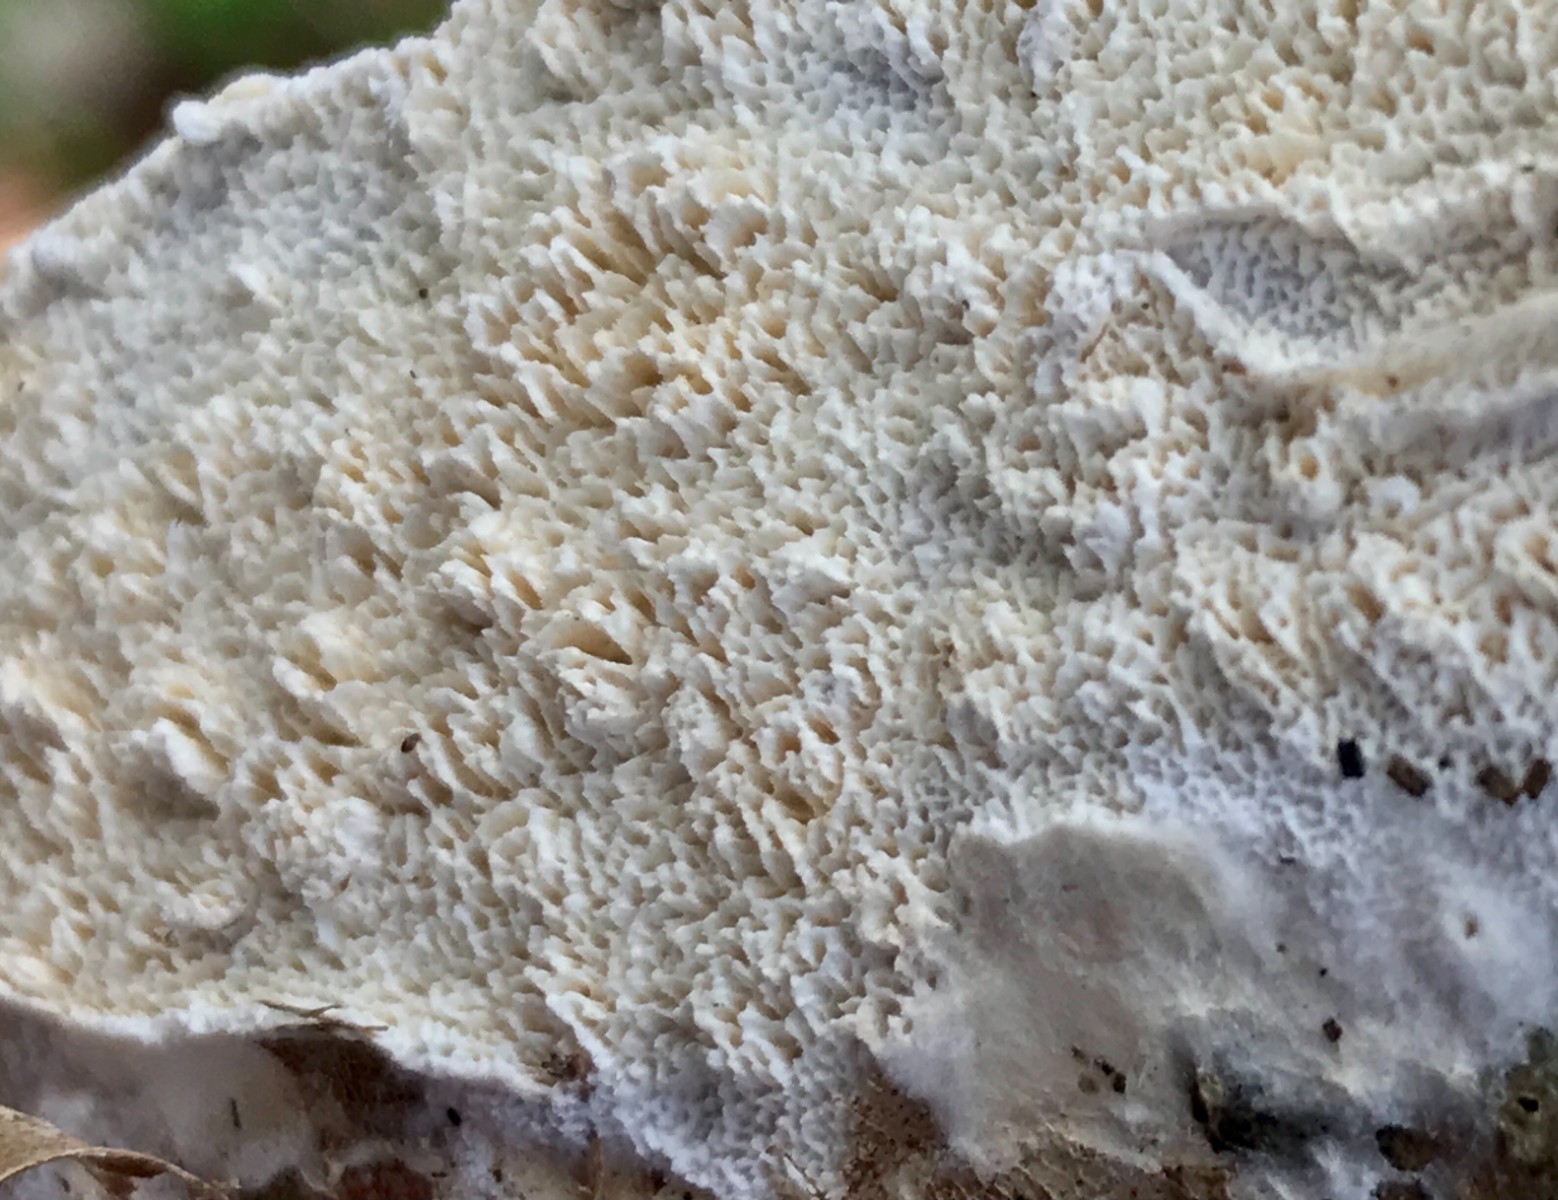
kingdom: Fungi
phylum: Basidiomycota
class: Agaricomycetes
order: Hymenochaetales
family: Schizoporaceae
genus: Schizopora
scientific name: Schizopora paradoxa
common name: hvid tandsvamp
